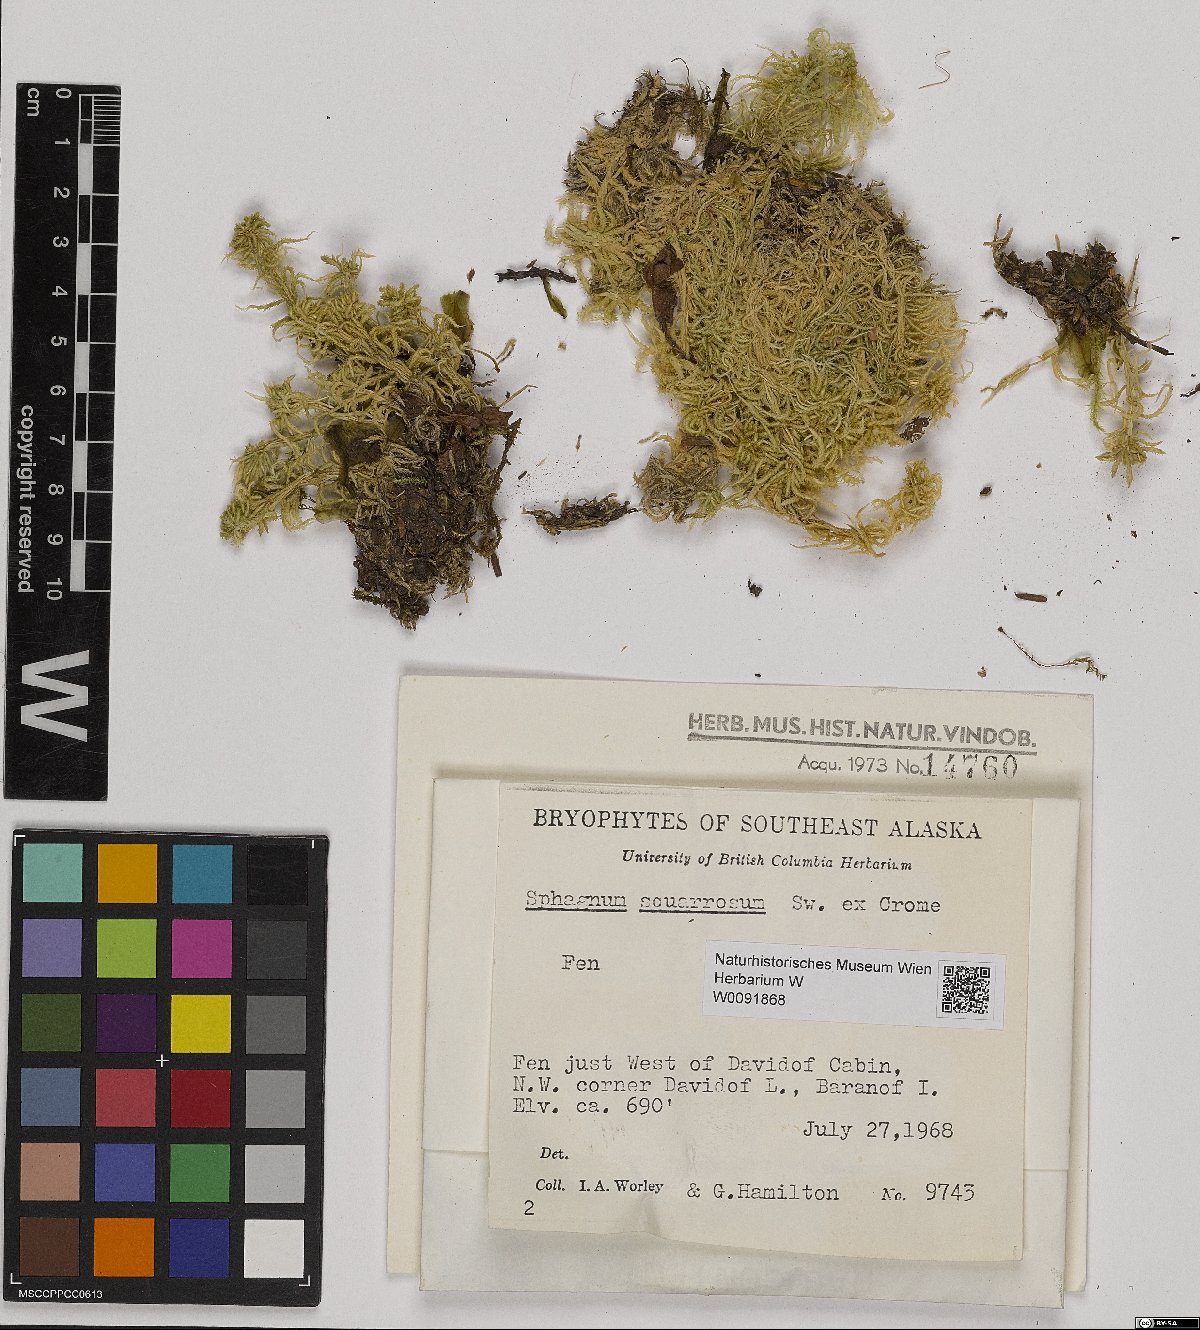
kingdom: Plantae
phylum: Bryophyta
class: Sphagnopsida
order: Sphagnales
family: Sphagnaceae
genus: Sphagnum
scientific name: Sphagnum squarrosum
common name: Shaggy peat moss
